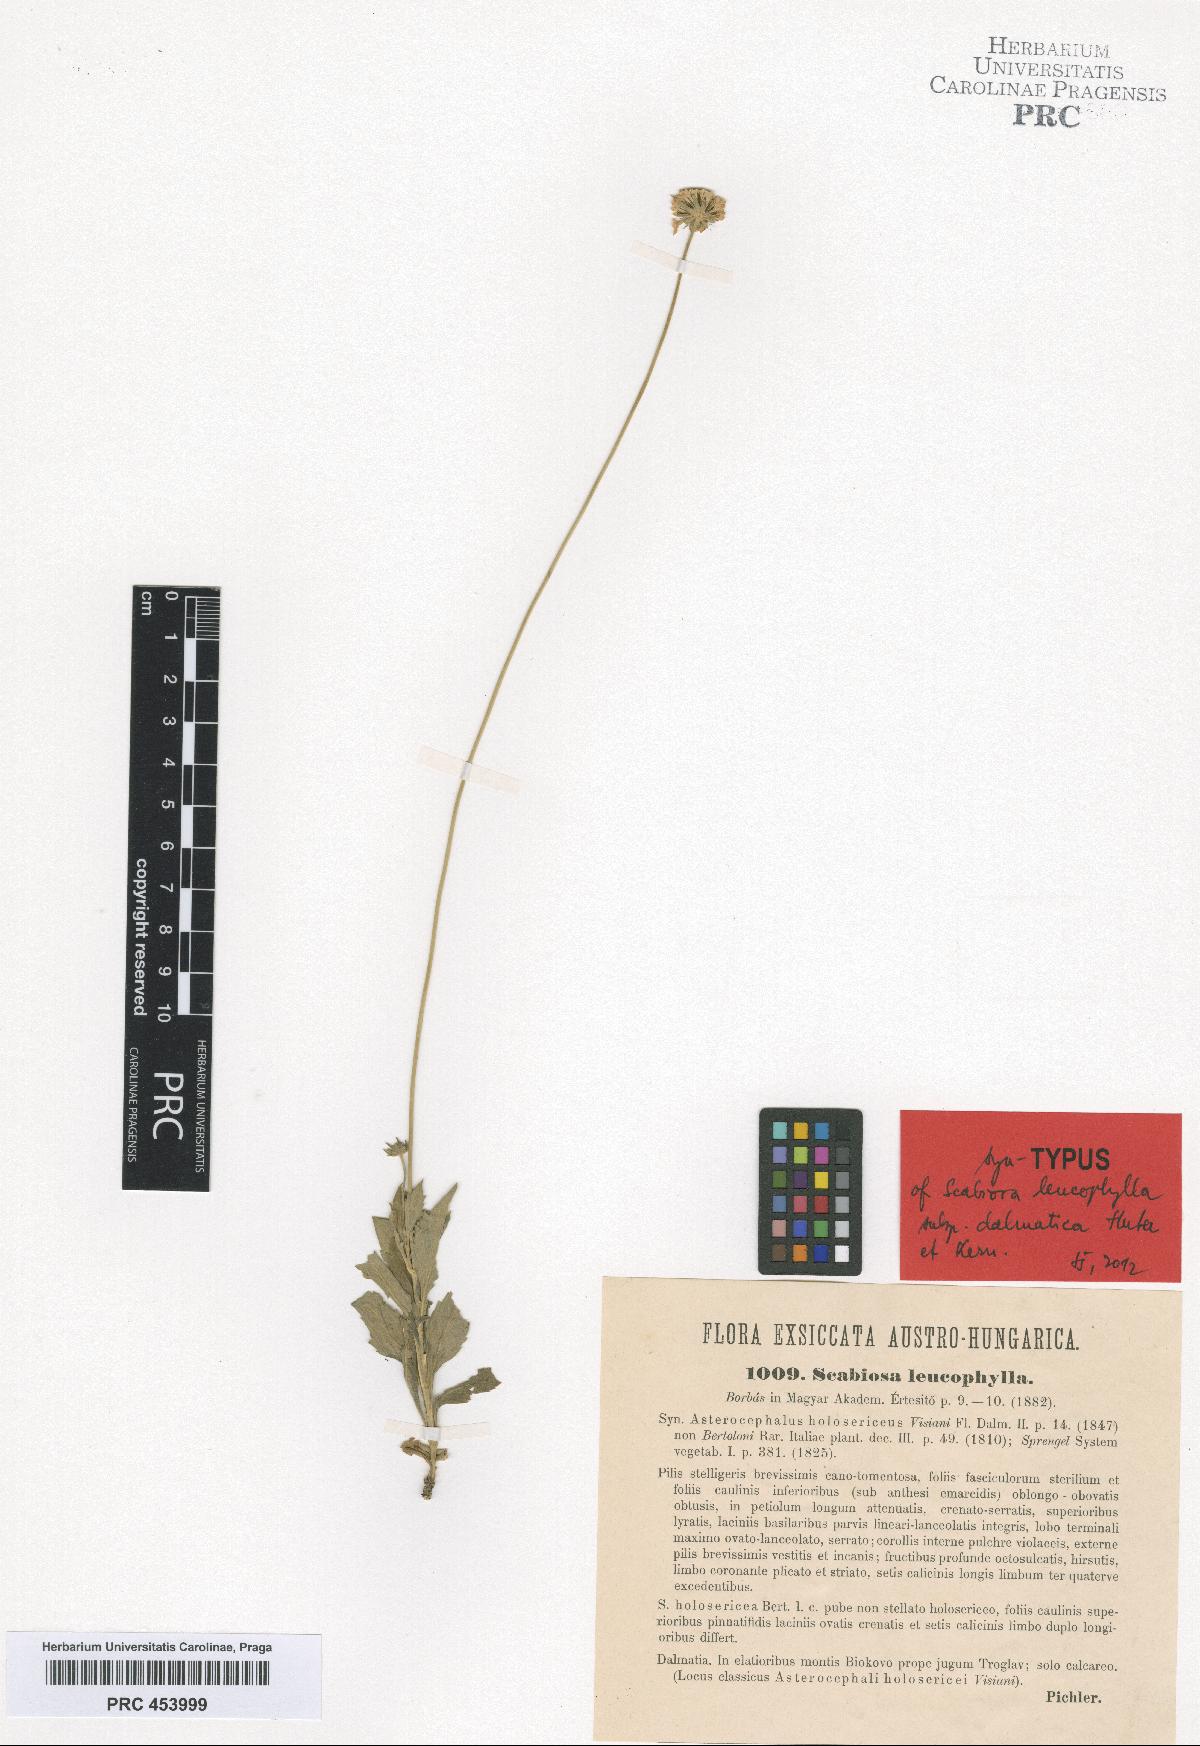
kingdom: Plantae
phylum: Tracheophyta
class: Magnoliopsida
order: Dipsacales
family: Caprifoliaceae
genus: Scabiosa
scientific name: Scabiosa cinerea
